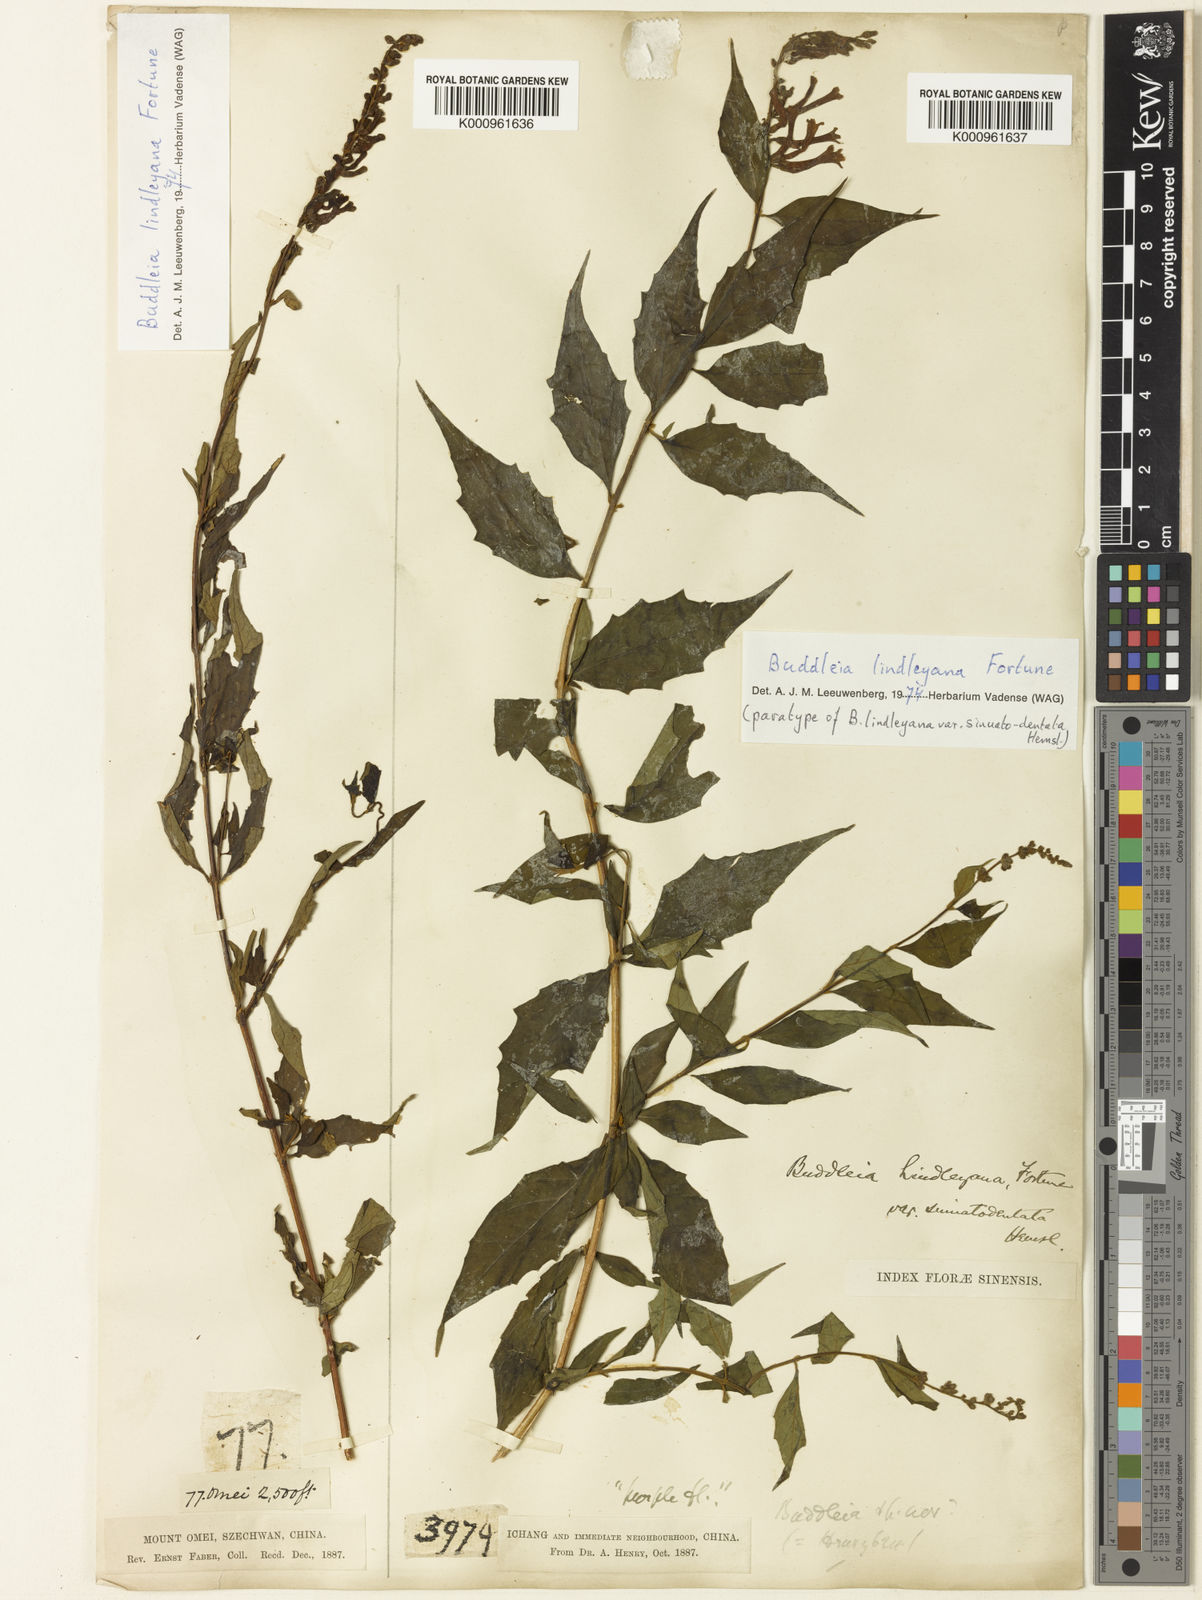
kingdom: Plantae
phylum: Tracheophyta
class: Magnoliopsida
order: Lamiales
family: Scrophulariaceae
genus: Buddleja
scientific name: Buddleja lindleyana
